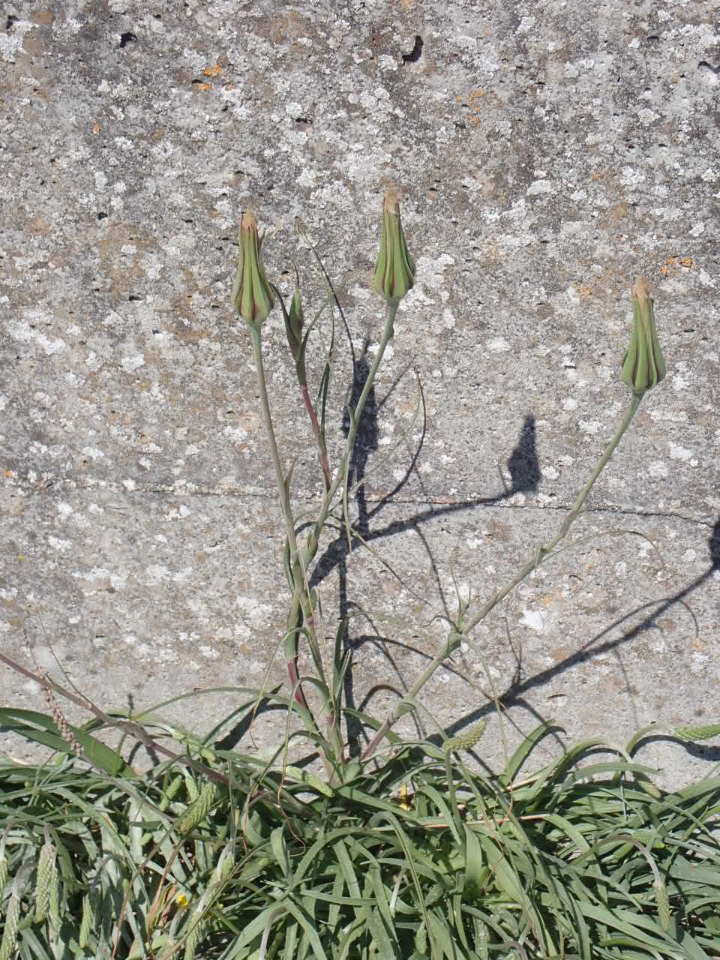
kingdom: Plantae
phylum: Tracheophyta
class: Magnoliopsida
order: Asterales
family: Asteraceae
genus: Tragopogon
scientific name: Tragopogon pratensis
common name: Gedeskæg
